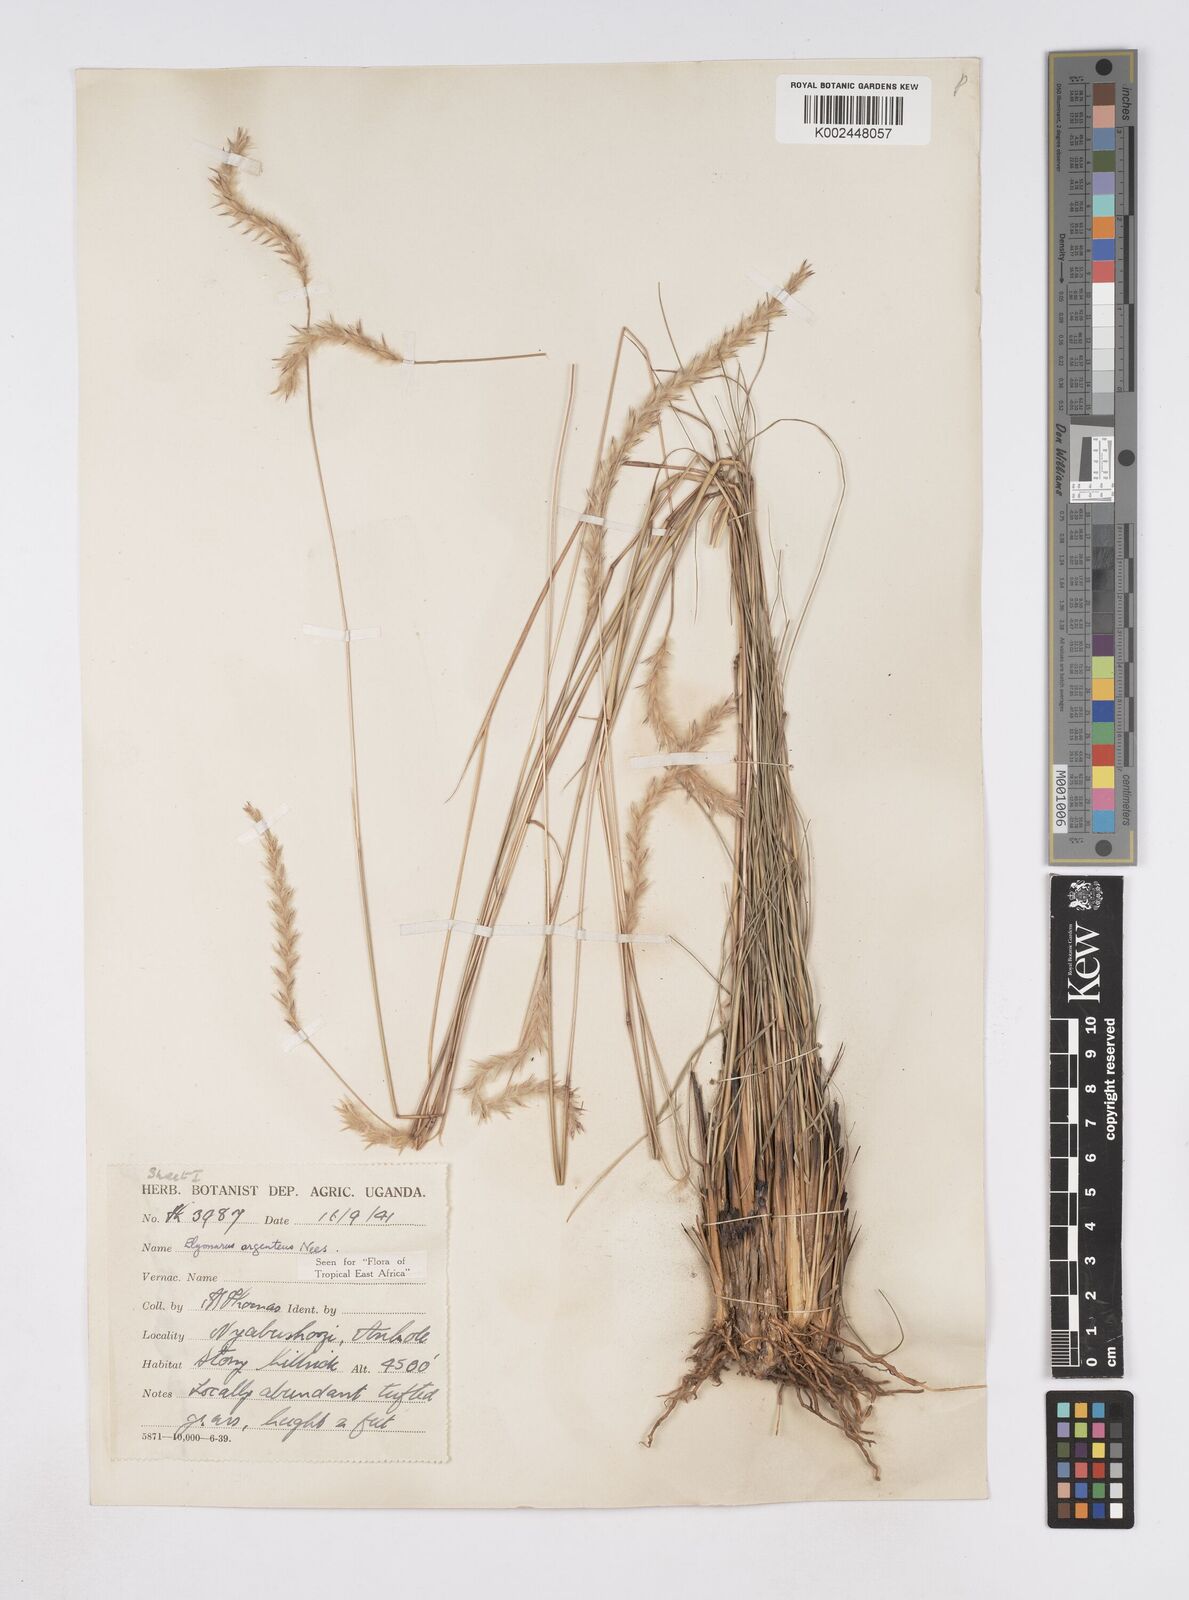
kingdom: Plantae
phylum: Tracheophyta
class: Liliopsida
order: Poales
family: Poaceae
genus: Elionurus
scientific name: Elionurus muticus
